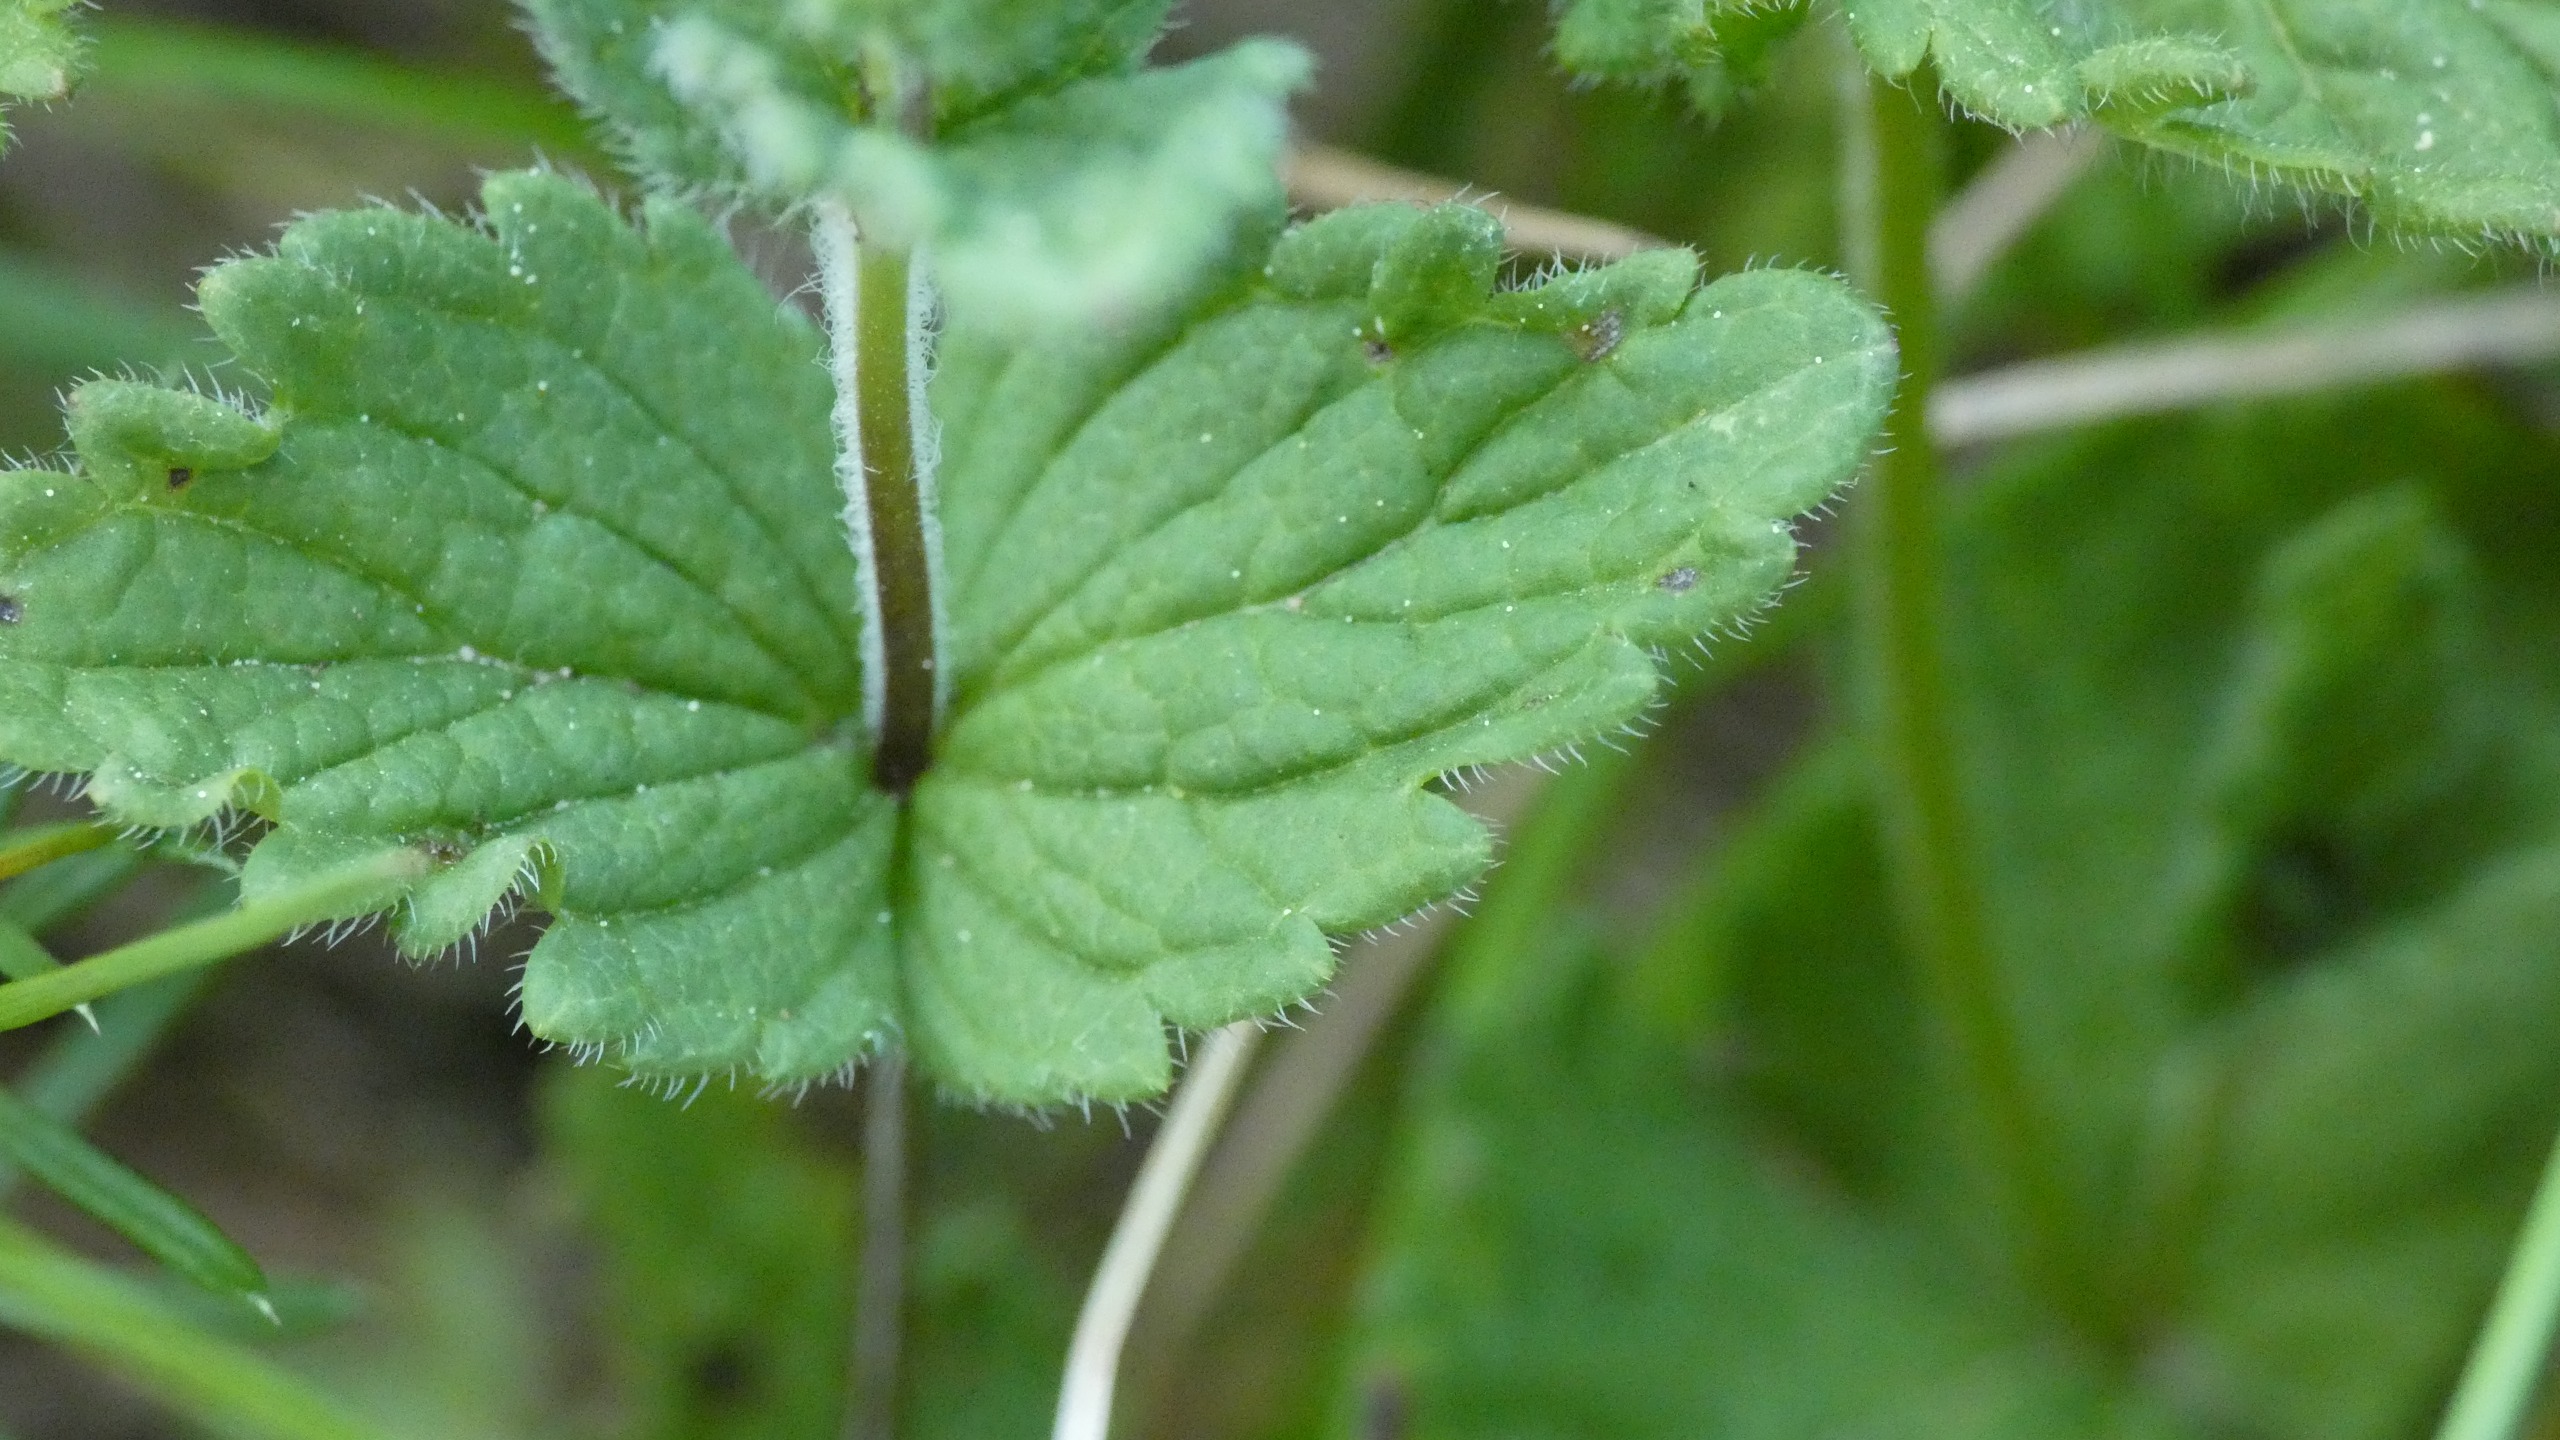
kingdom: Plantae
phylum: Tracheophyta
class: Magnoliopsida
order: Lamiales
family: Plantaginaceae
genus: Veronica
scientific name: Veronica chamaedrys
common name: Tveskægget ærenpris
